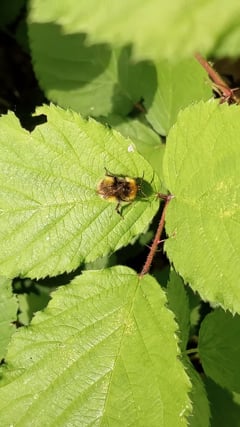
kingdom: Animalia
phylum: Arthropoda
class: Insecta
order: Hymenoptera
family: Apidae
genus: Bombus
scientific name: Bombus pratorum
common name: Early humble-bee
